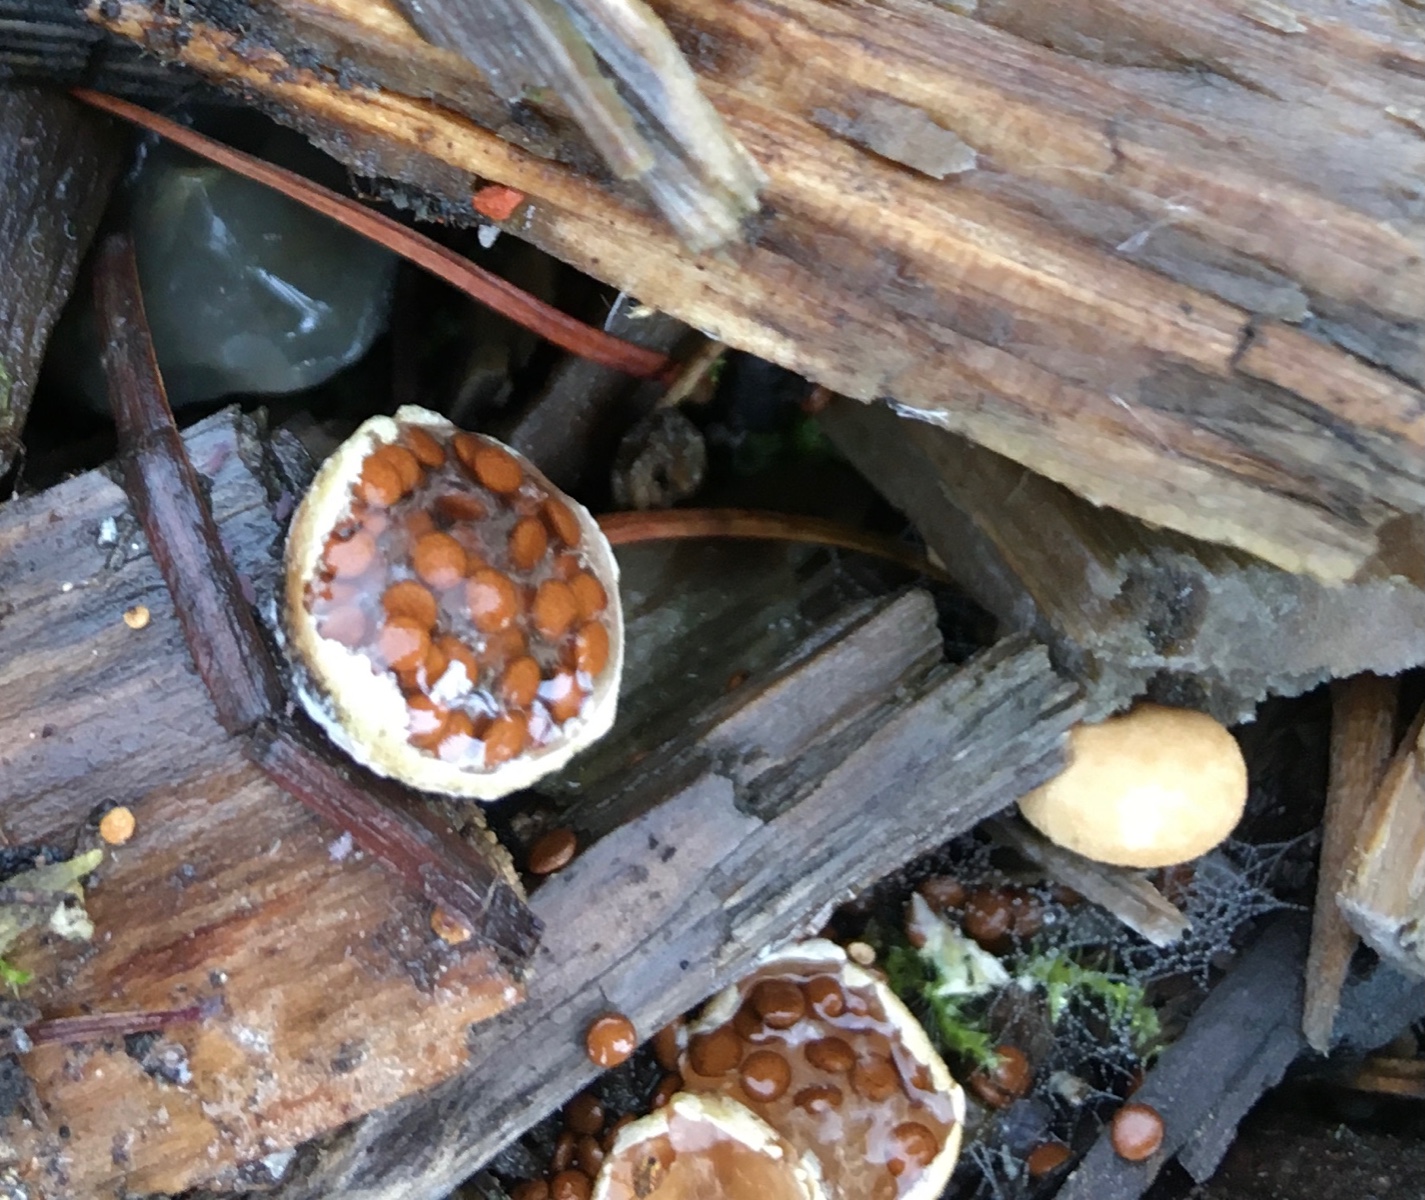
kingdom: Fungi
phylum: Basidiomycota
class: Agaricomycetes
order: Agaricales
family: Agaricaceae
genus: Nidularia
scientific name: Nidularia deformis
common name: pudesvamp
